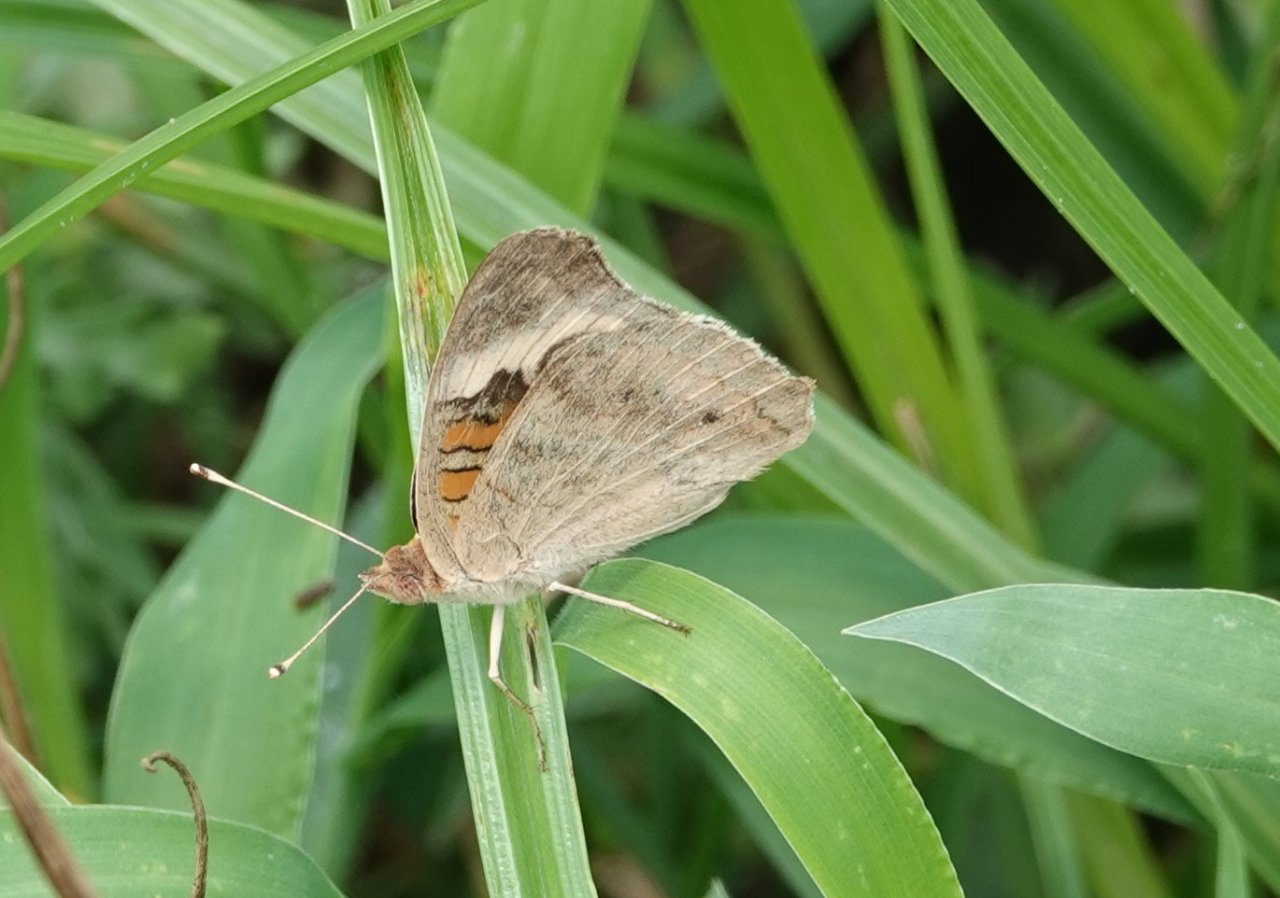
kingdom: Animalia
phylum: Arthropoda
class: Insecta
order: Lepidoptera
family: Nymphalidae
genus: Junonia
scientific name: Junonia coenia
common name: Common Buckeye
